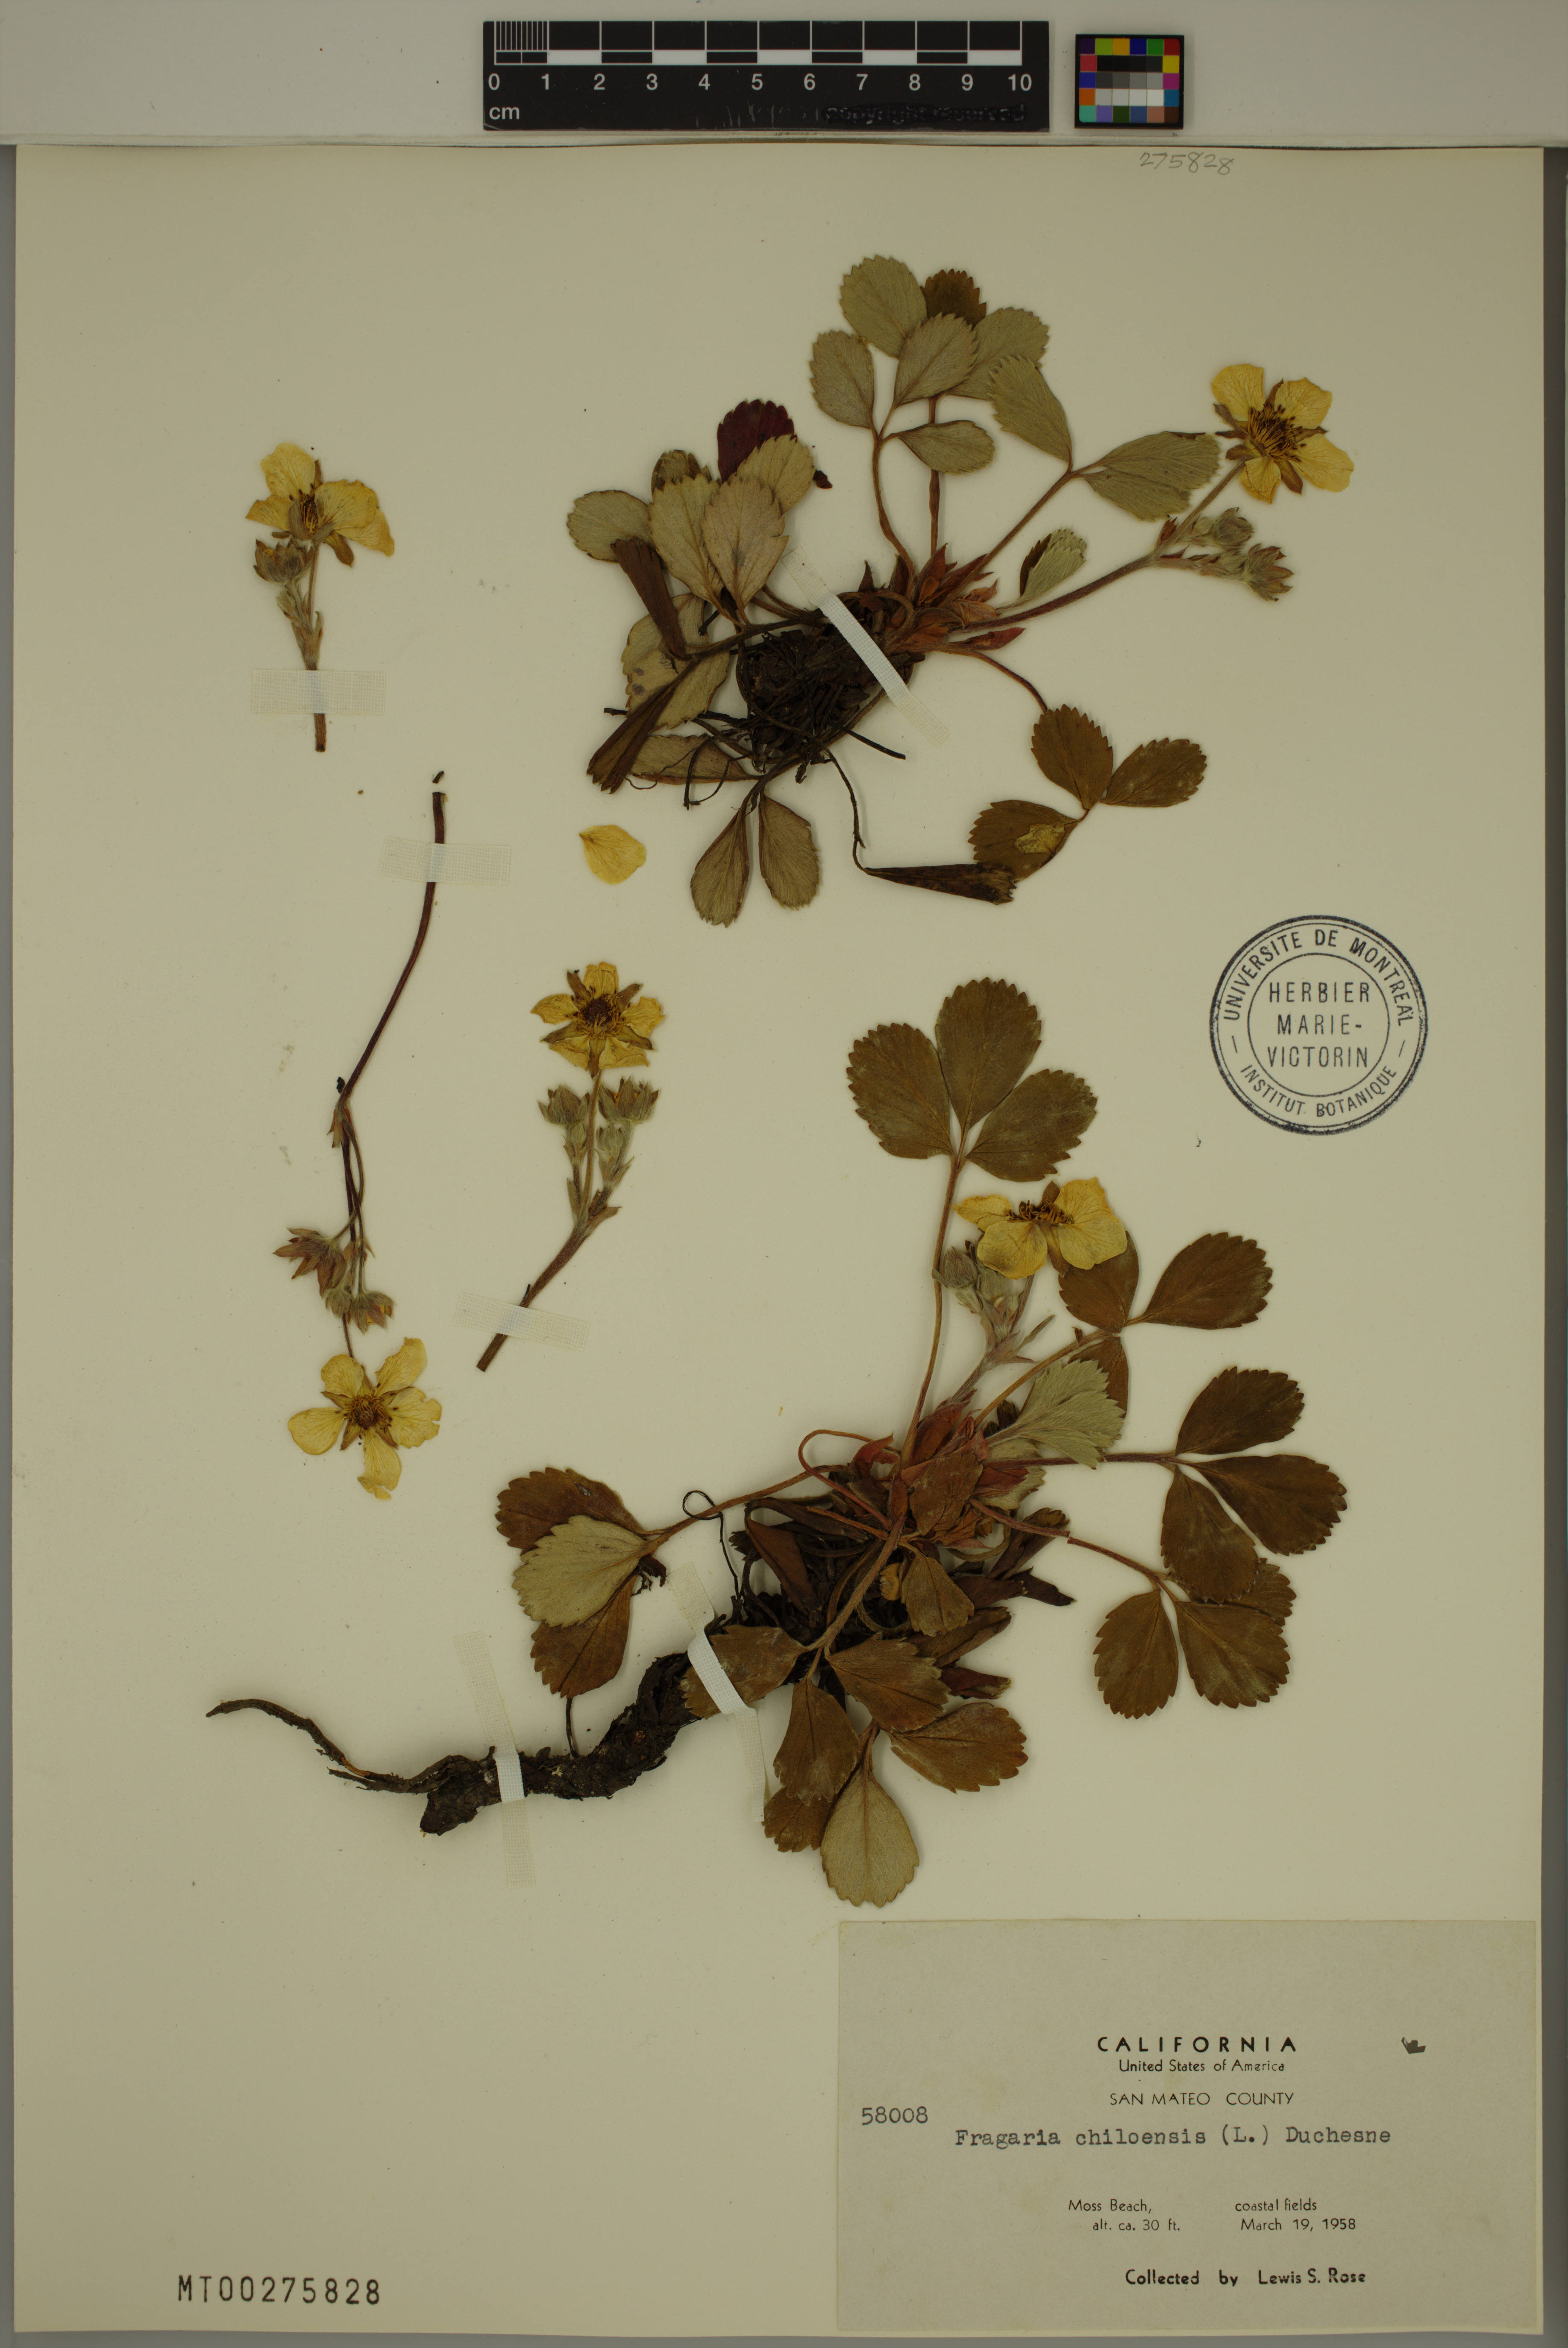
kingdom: Plantae
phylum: Tracheophyta
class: Magnoliopsida
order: Rosales
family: Rosaceae
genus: Fragaria
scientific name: Fragaria chiloensis
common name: Beach strawberry
